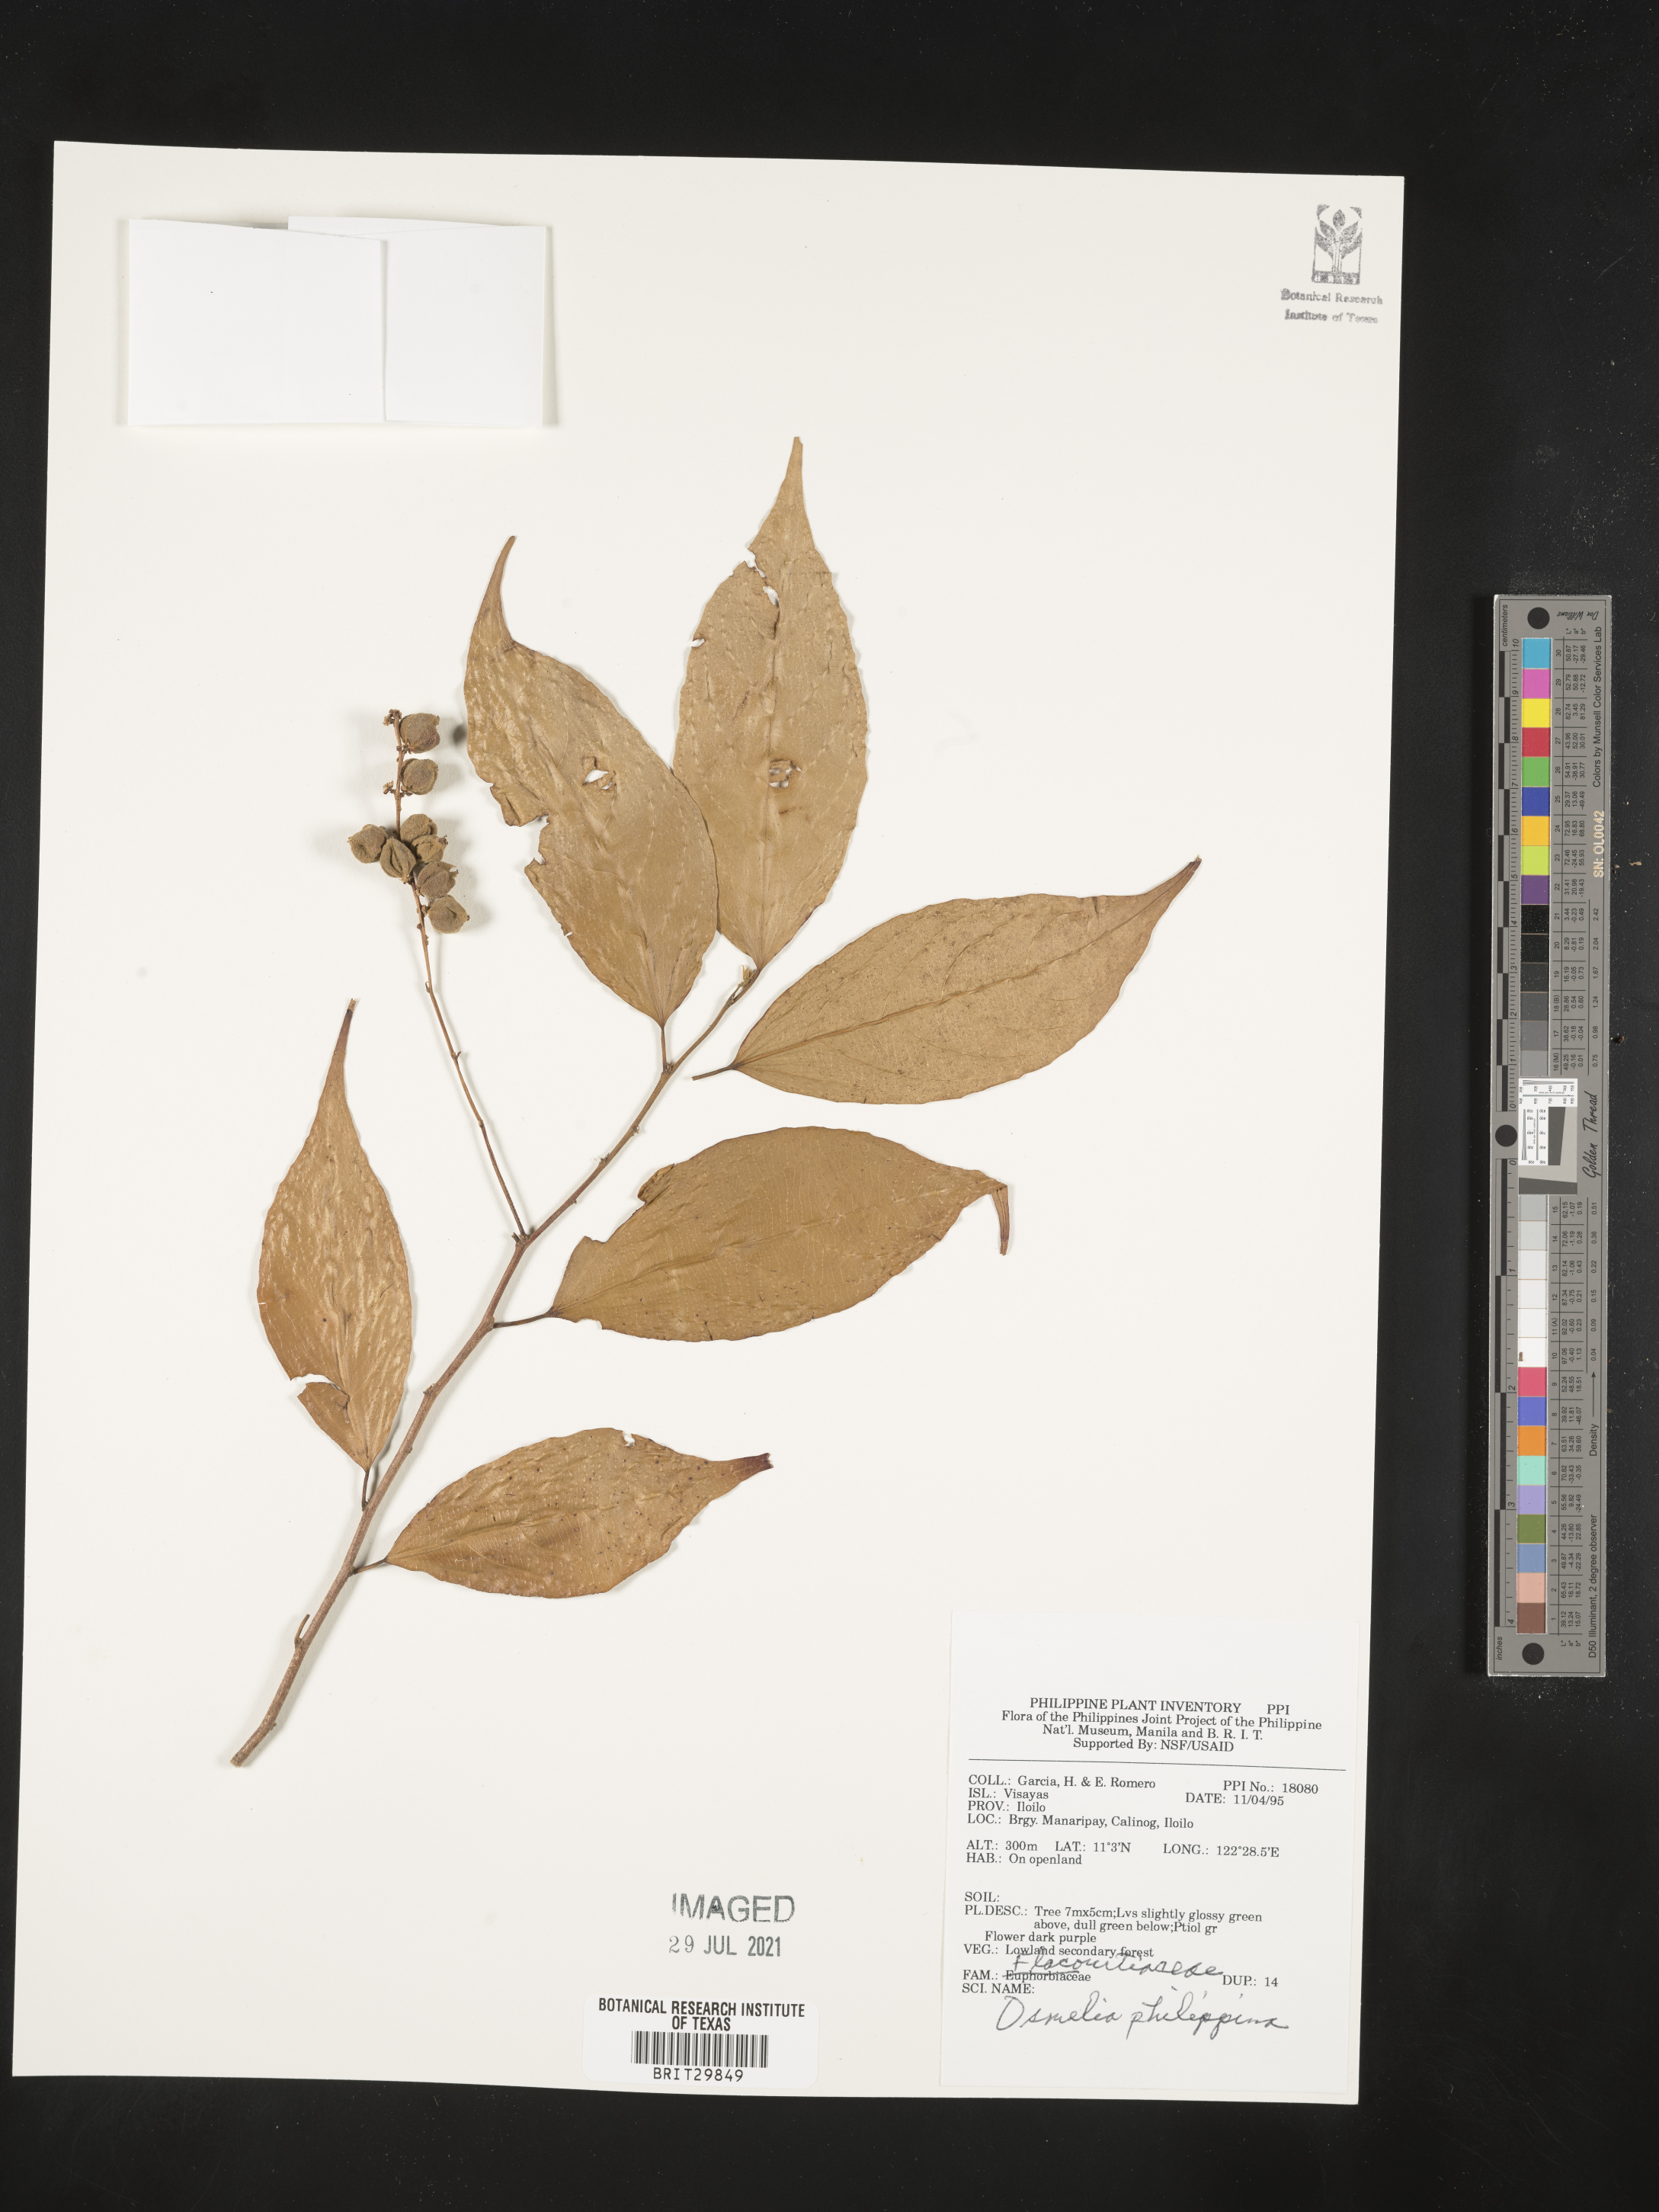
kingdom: Plantae
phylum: Tracheophyta
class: Magnoliopsida
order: Malpighiales
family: Salicaceae
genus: Osmelia
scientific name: Osmelia philippina
